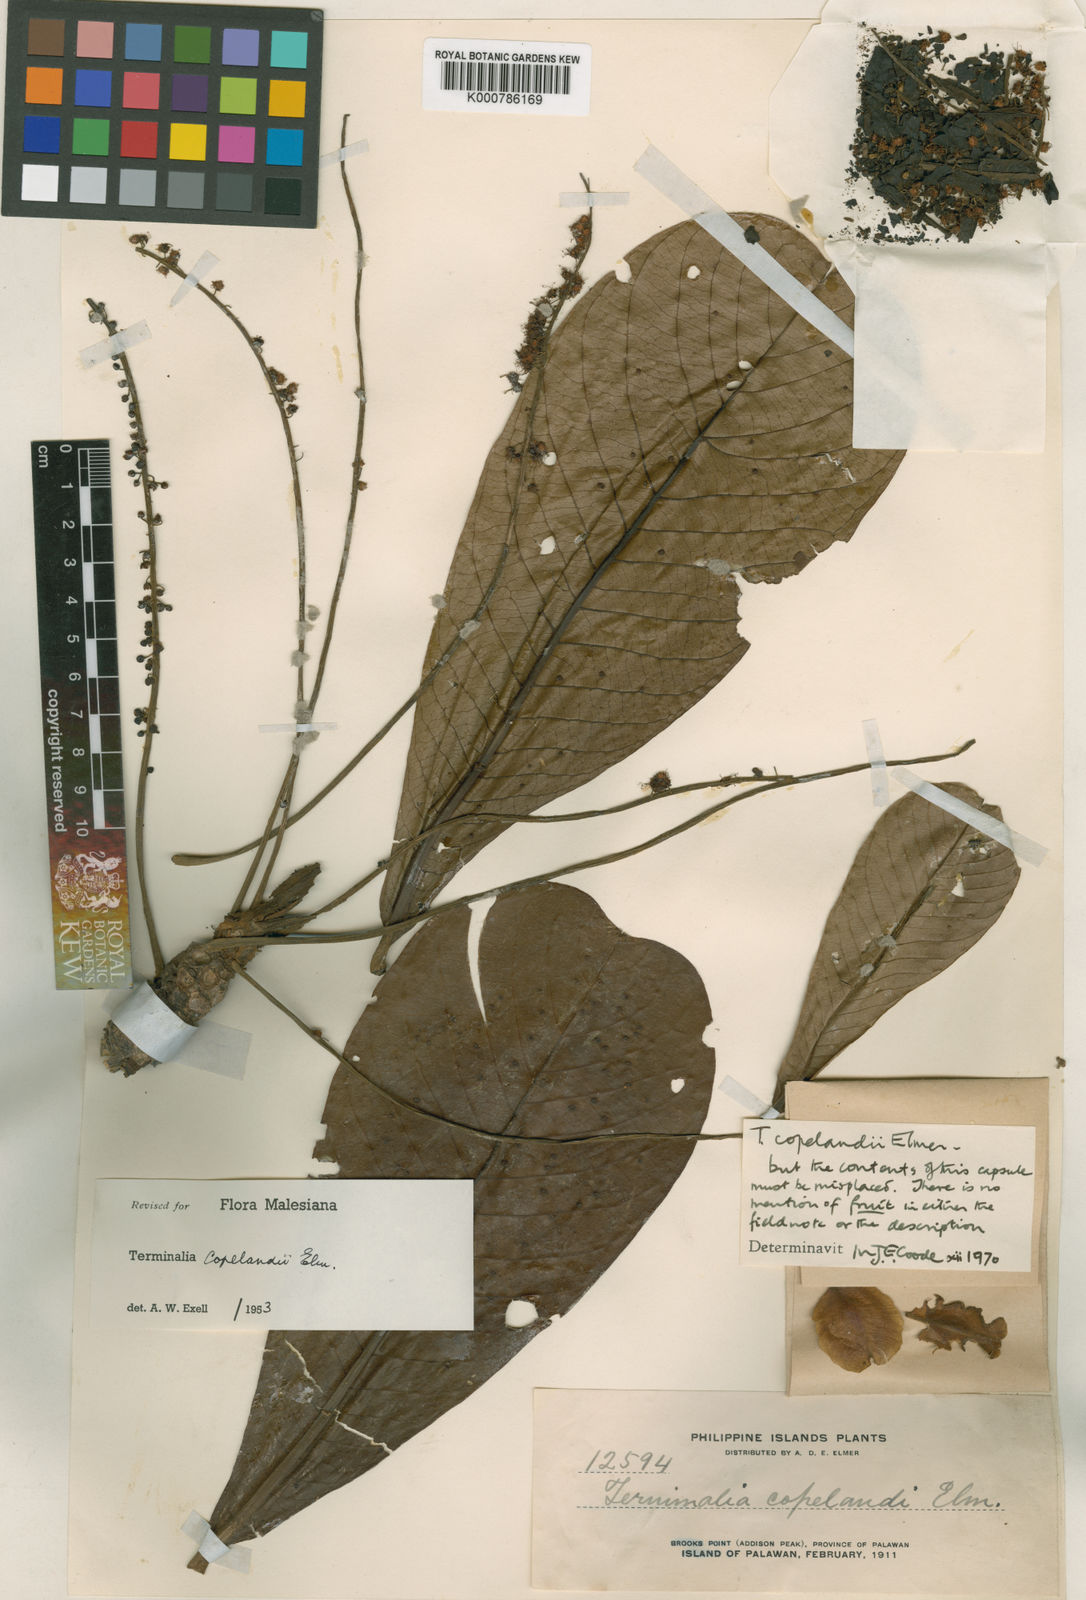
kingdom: Plantae
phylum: Tracheophyta
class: Magnoliopsida
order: Myrtales
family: Combretaceae
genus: Terminalia
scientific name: Terminalia procera
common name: White bombway
